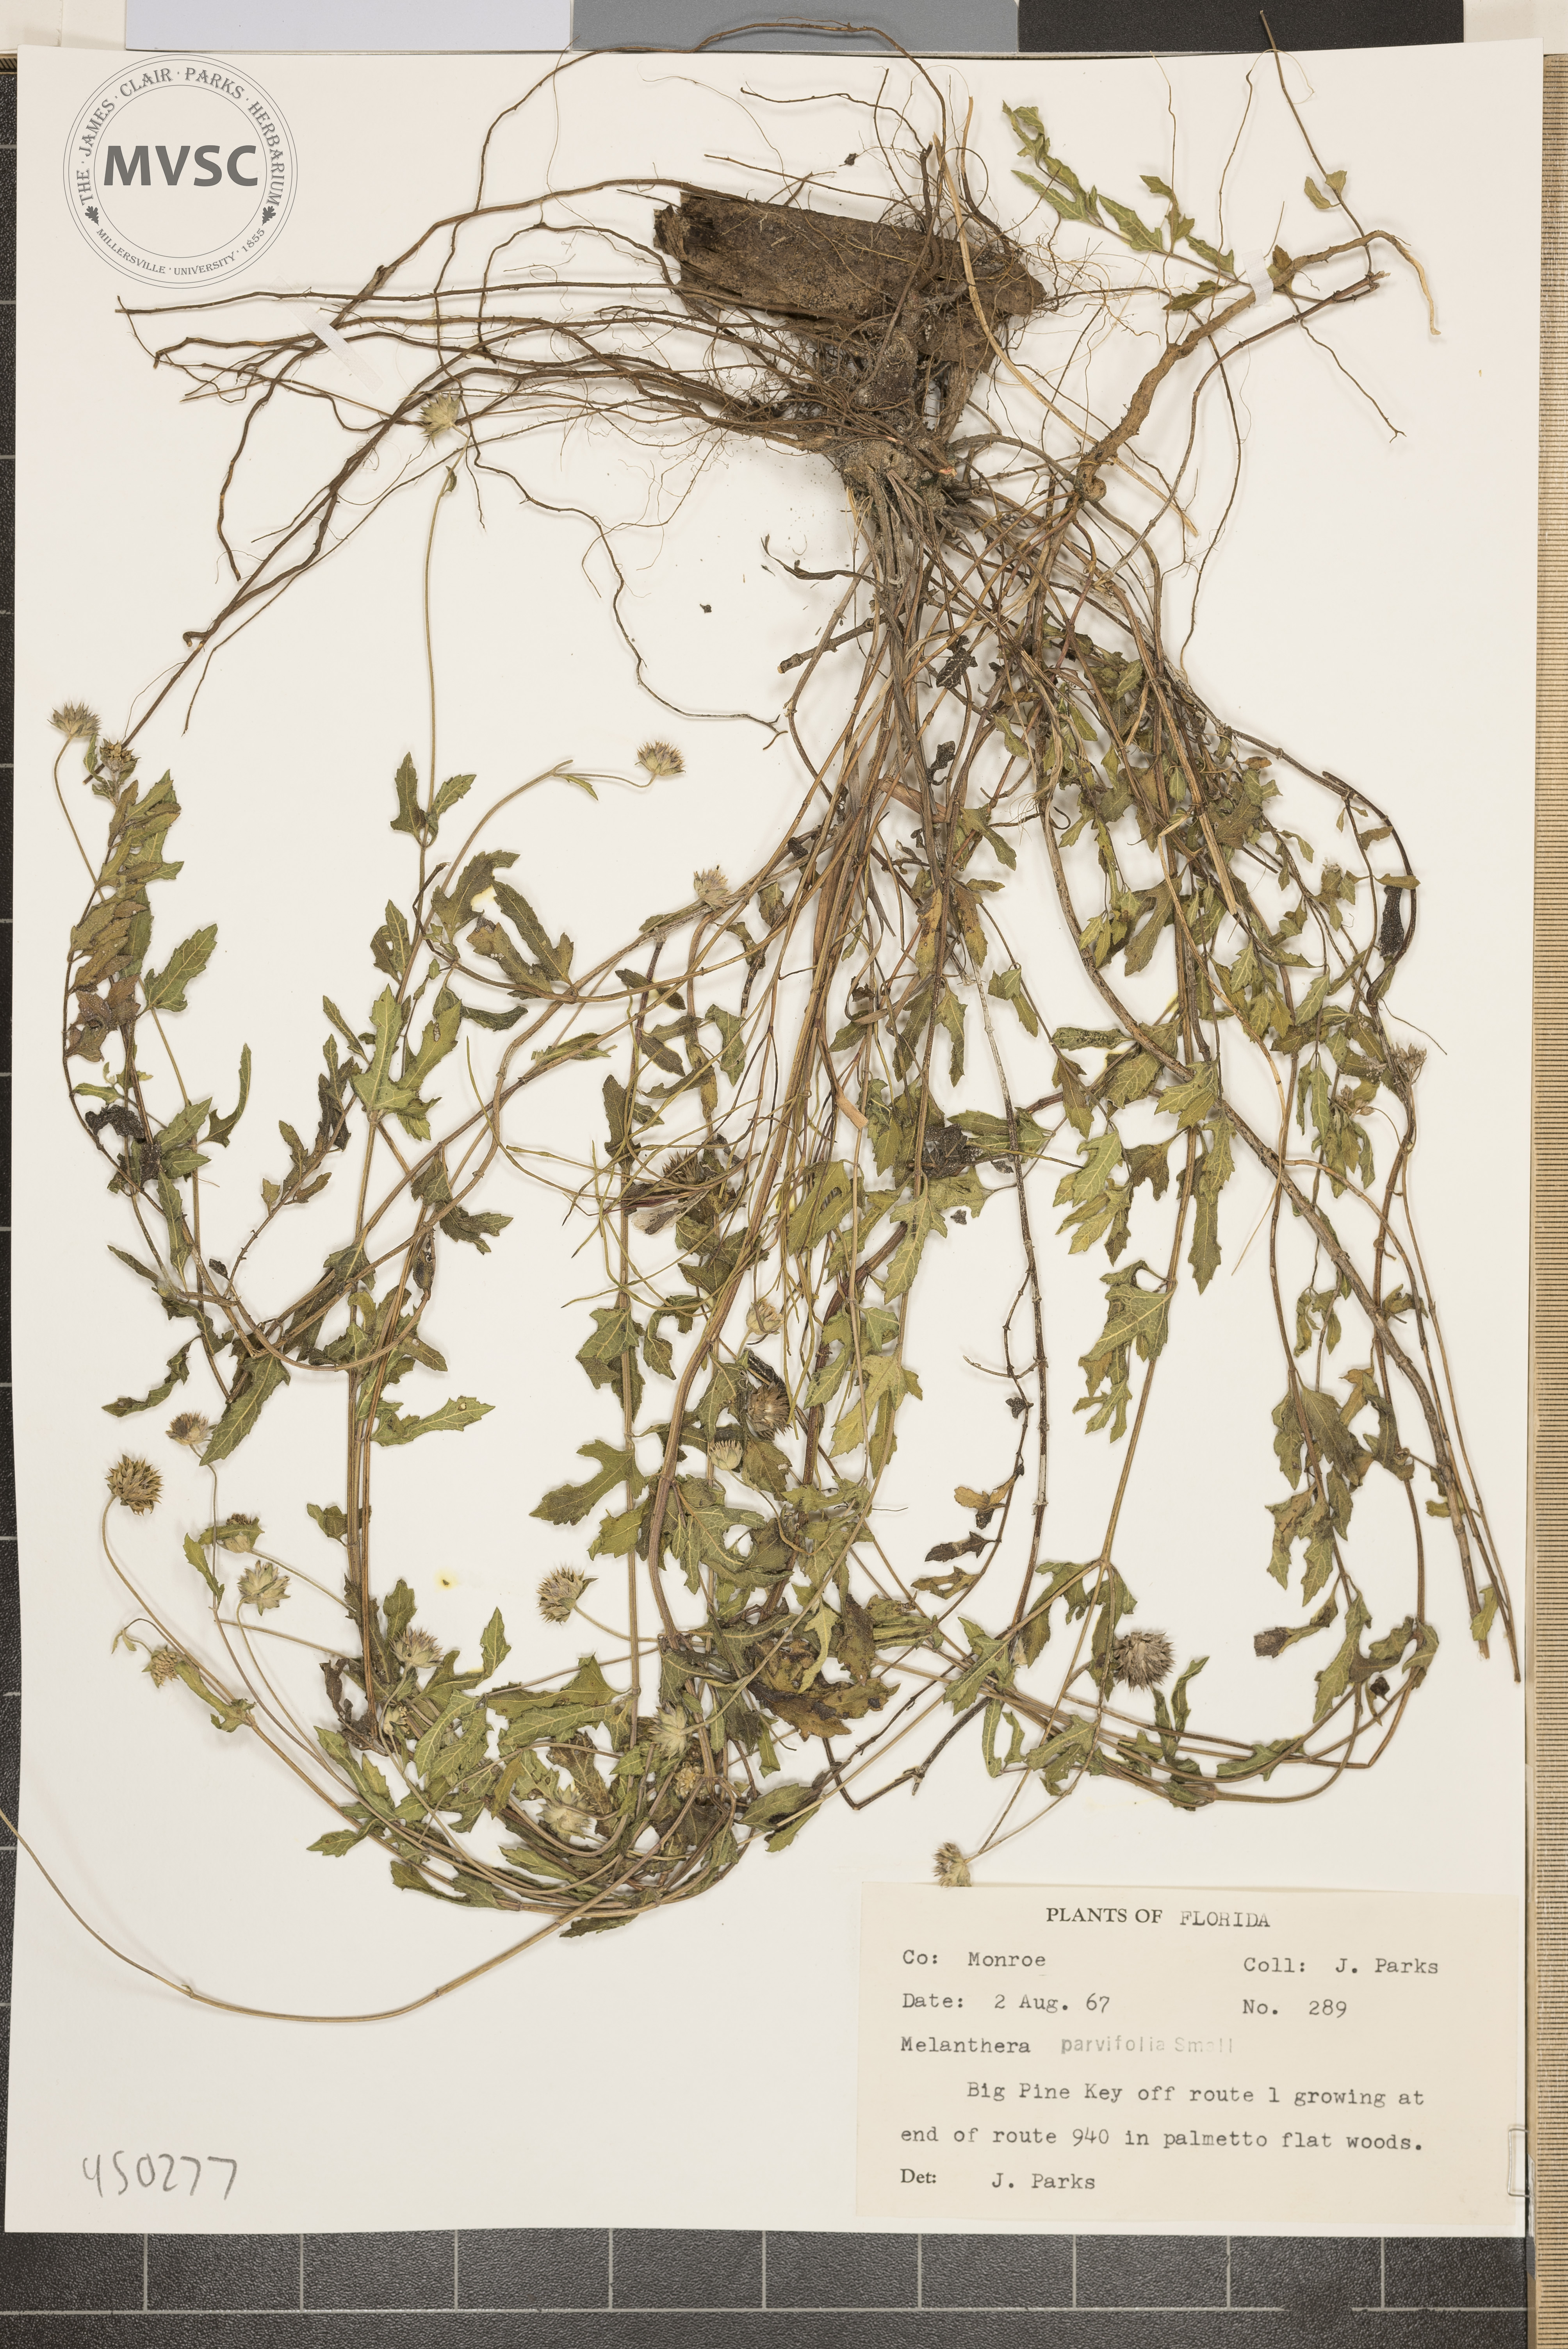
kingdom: Plantae
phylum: Tracheophyta
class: Magnoliopsida
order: Asterales
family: Asteraceae
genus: Melanthera
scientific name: Melanthera parvifolia
